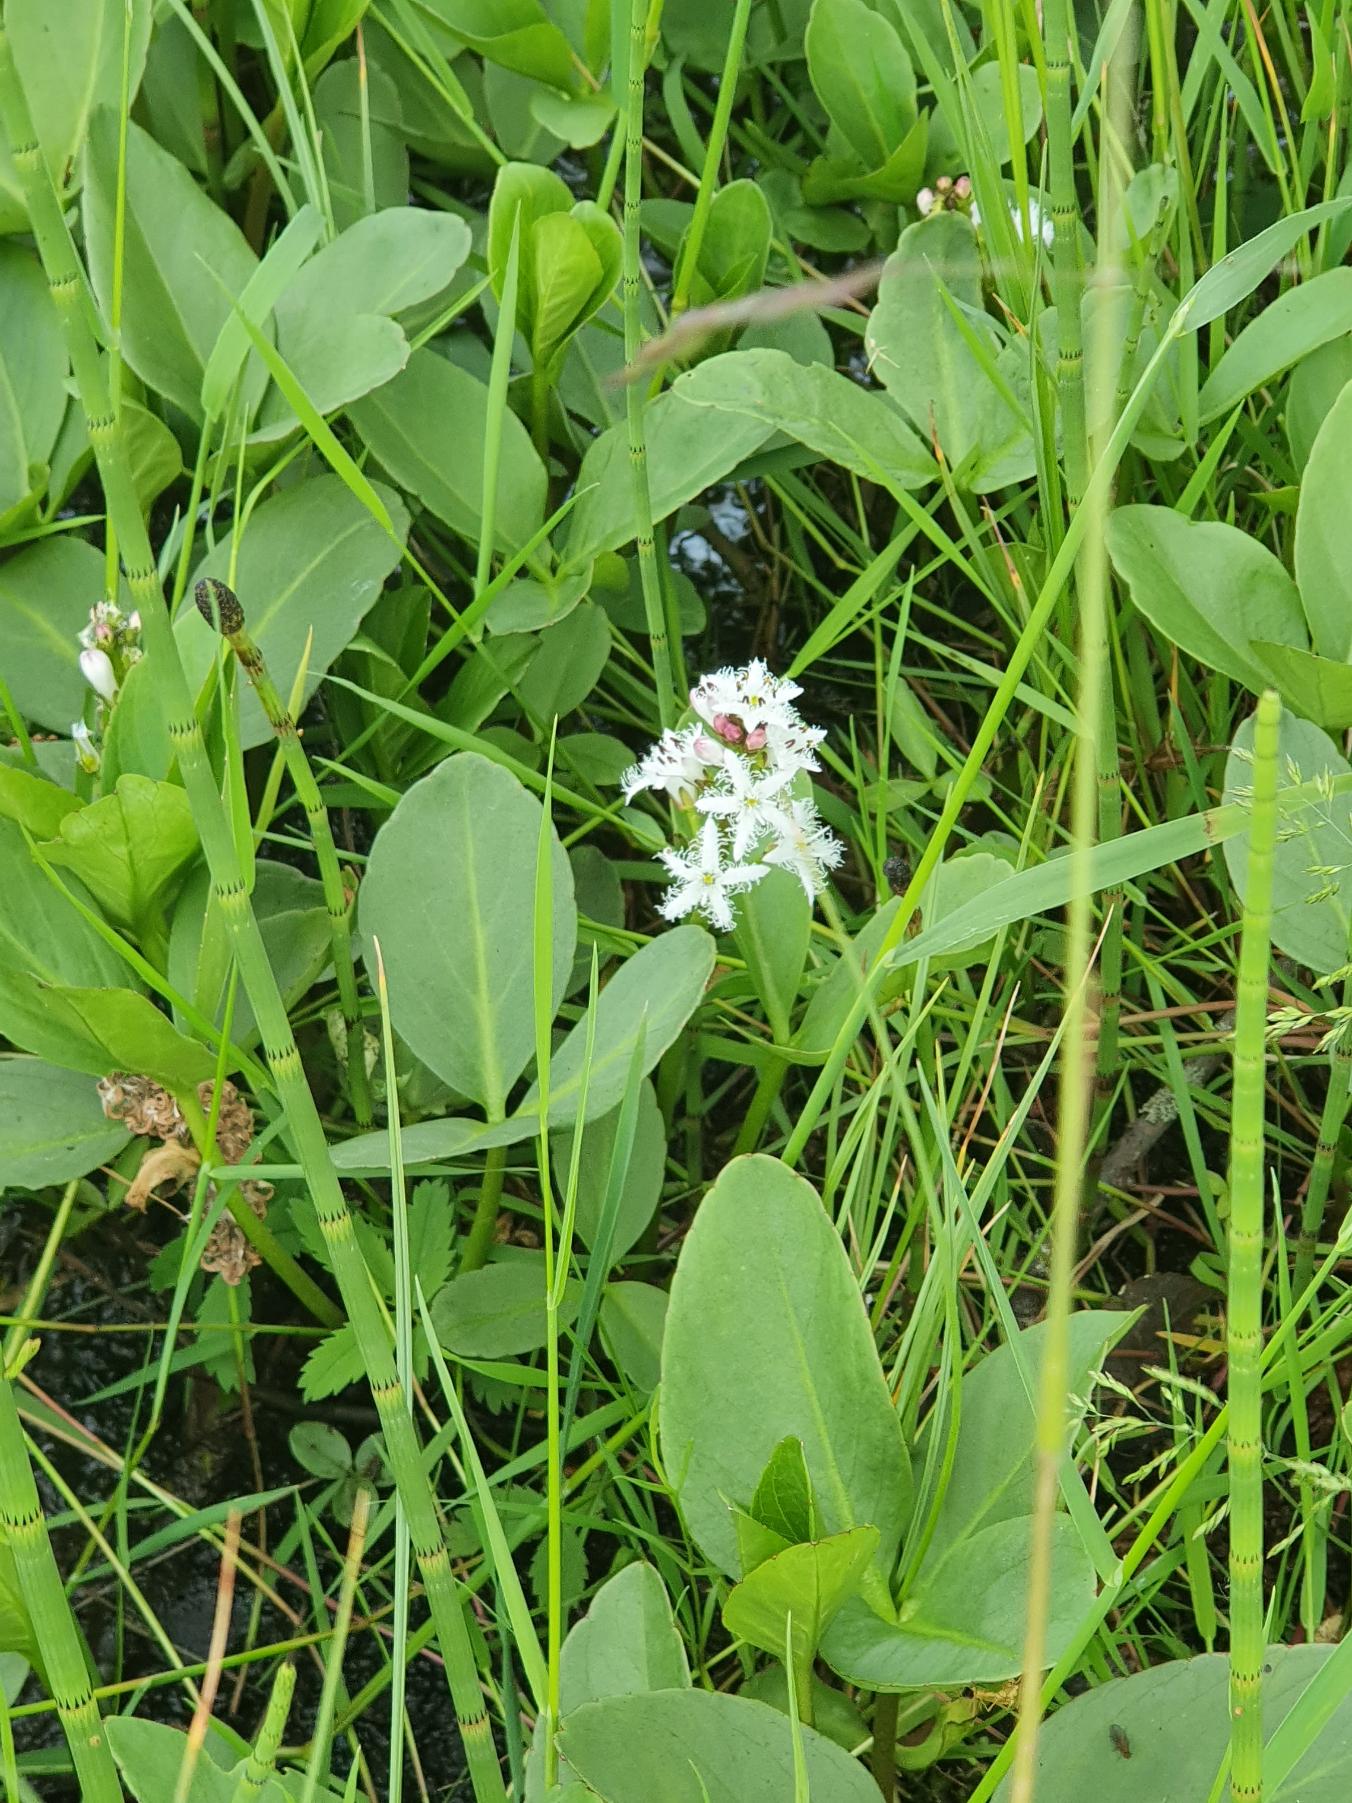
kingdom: Plantae
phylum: Tracheophyta
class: Magnoliopsida
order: Asterales
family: Menyanthaceae
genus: Menyanthes
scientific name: Menyanthes trifoliata
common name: Bukkeblad
